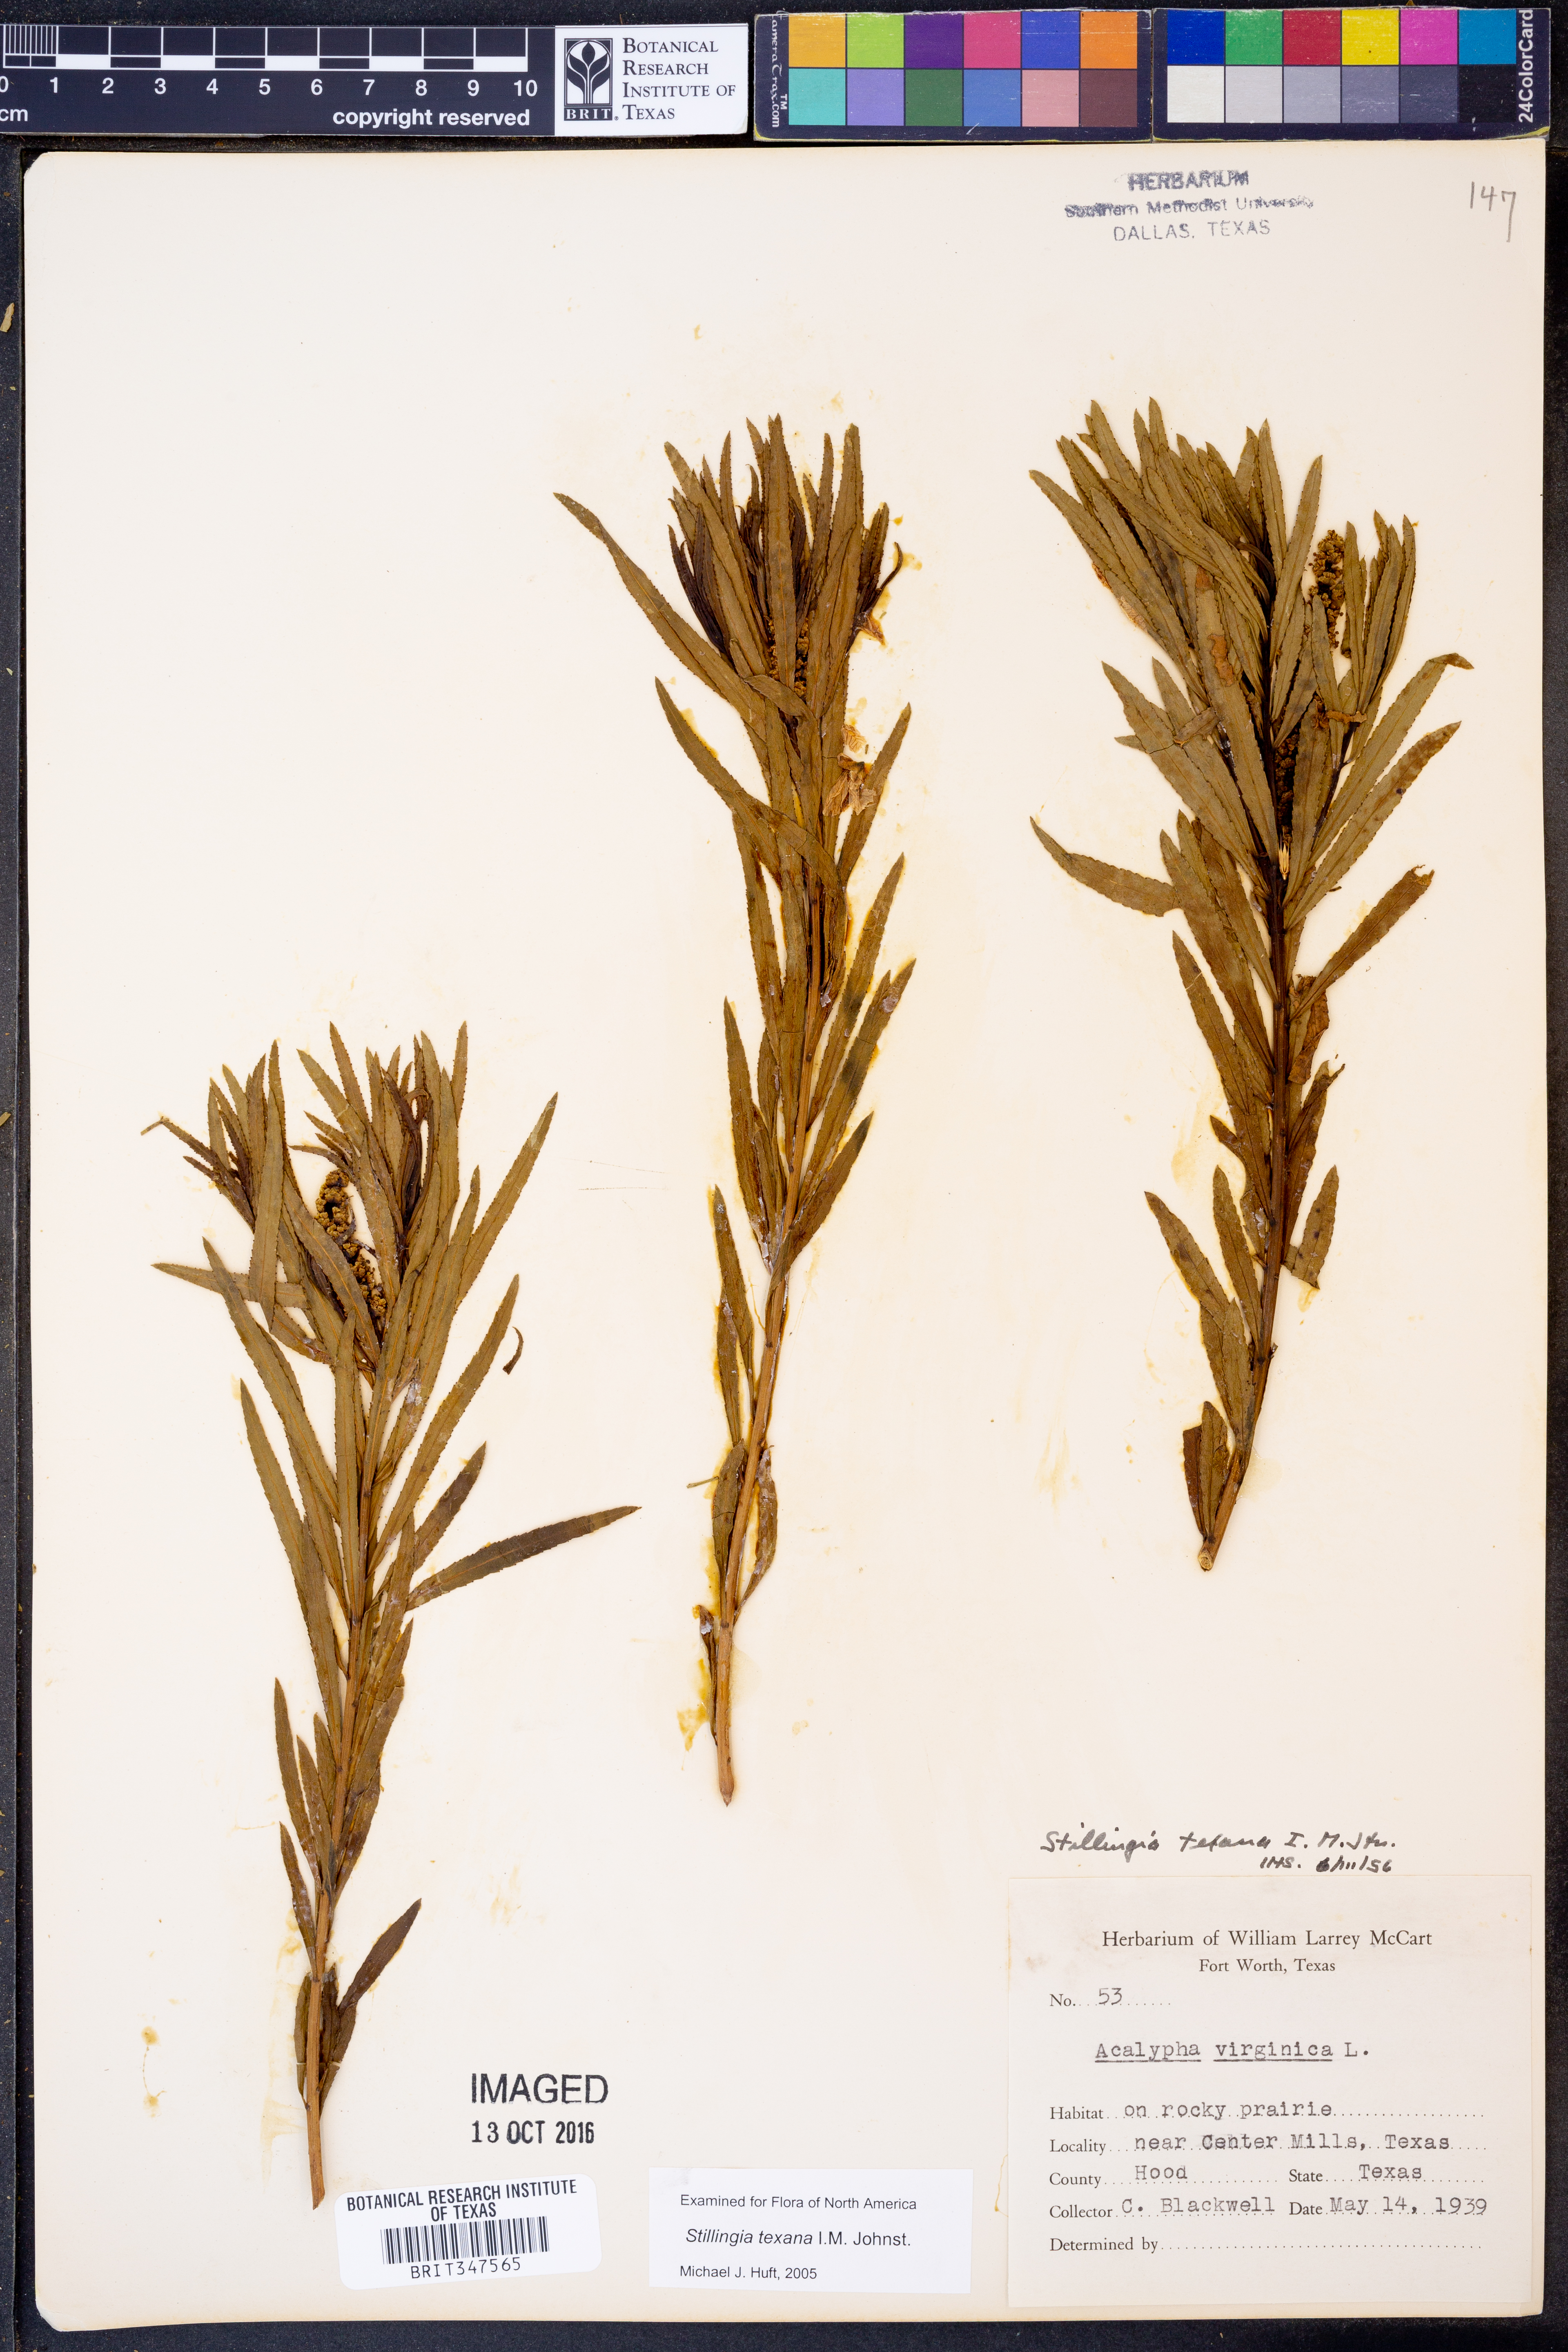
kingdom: Plantae
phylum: Tracheophyta
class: Magnoliopsida
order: Malpighiales
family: Euphorbiaceae
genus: Stillingia
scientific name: Stillingia texana
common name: Texas stillingia
